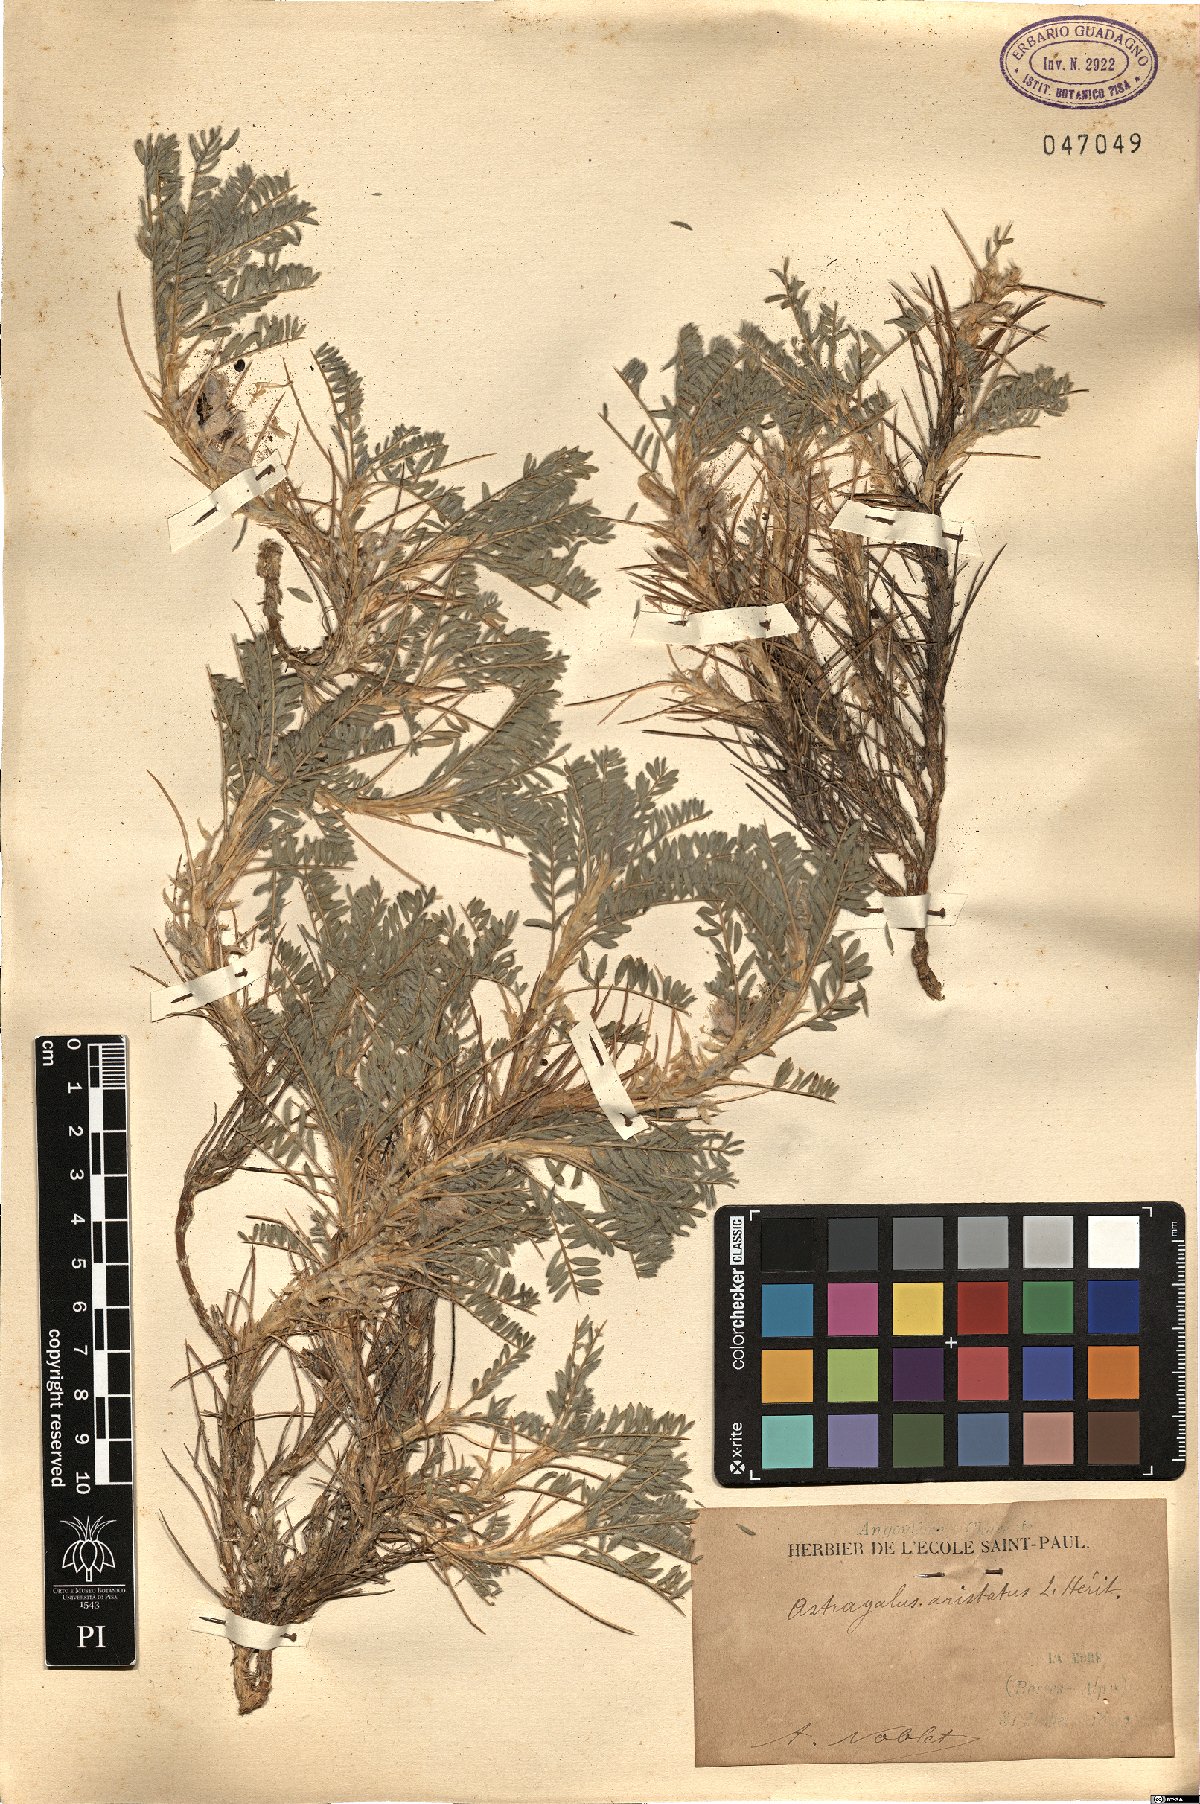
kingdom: Plantae
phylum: Tracheophyta
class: Magnoliopsida
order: Fabales
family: Fabaceae
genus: Astragalus
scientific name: Astragalus
